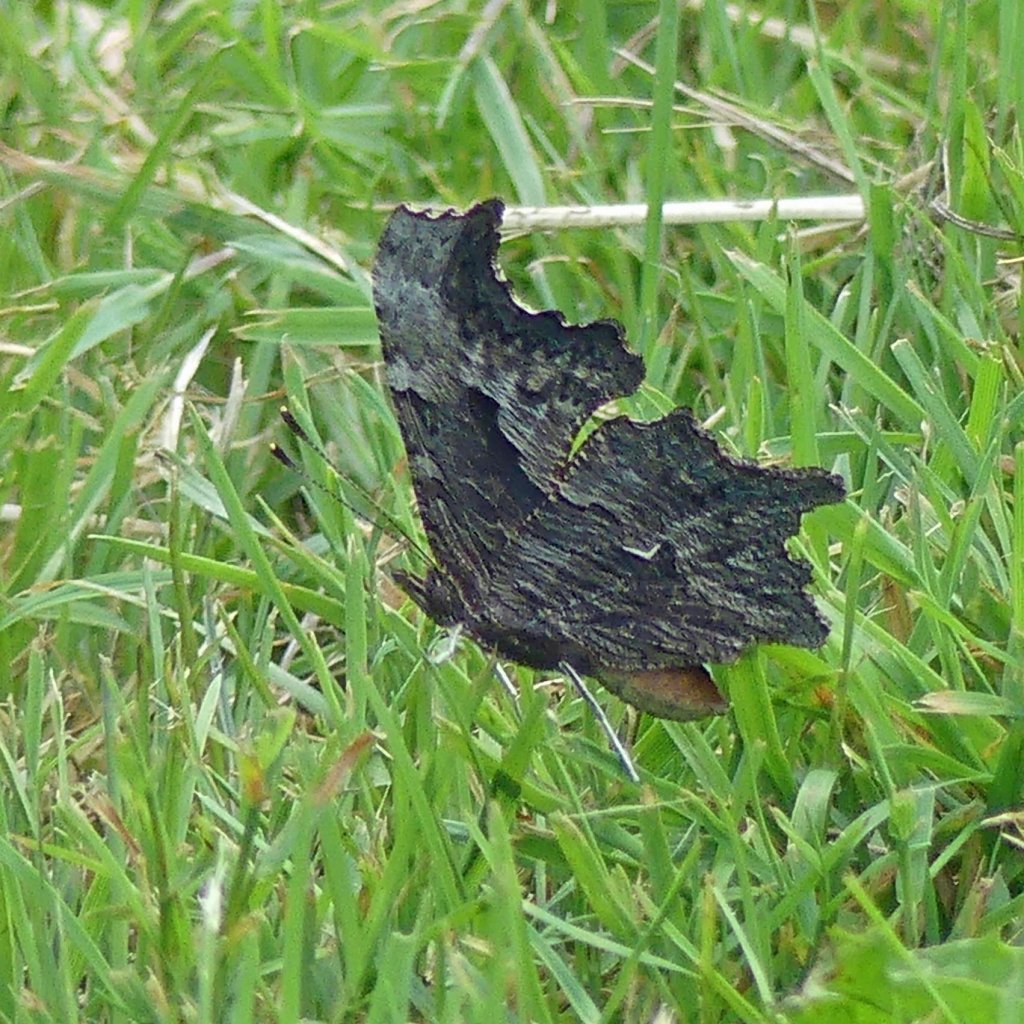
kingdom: Animalia
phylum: Arthropoda
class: Insecta
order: Lepidoptera
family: Nymphalidae
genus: Polygonia
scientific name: Polygonia progne
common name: Gray Comma
